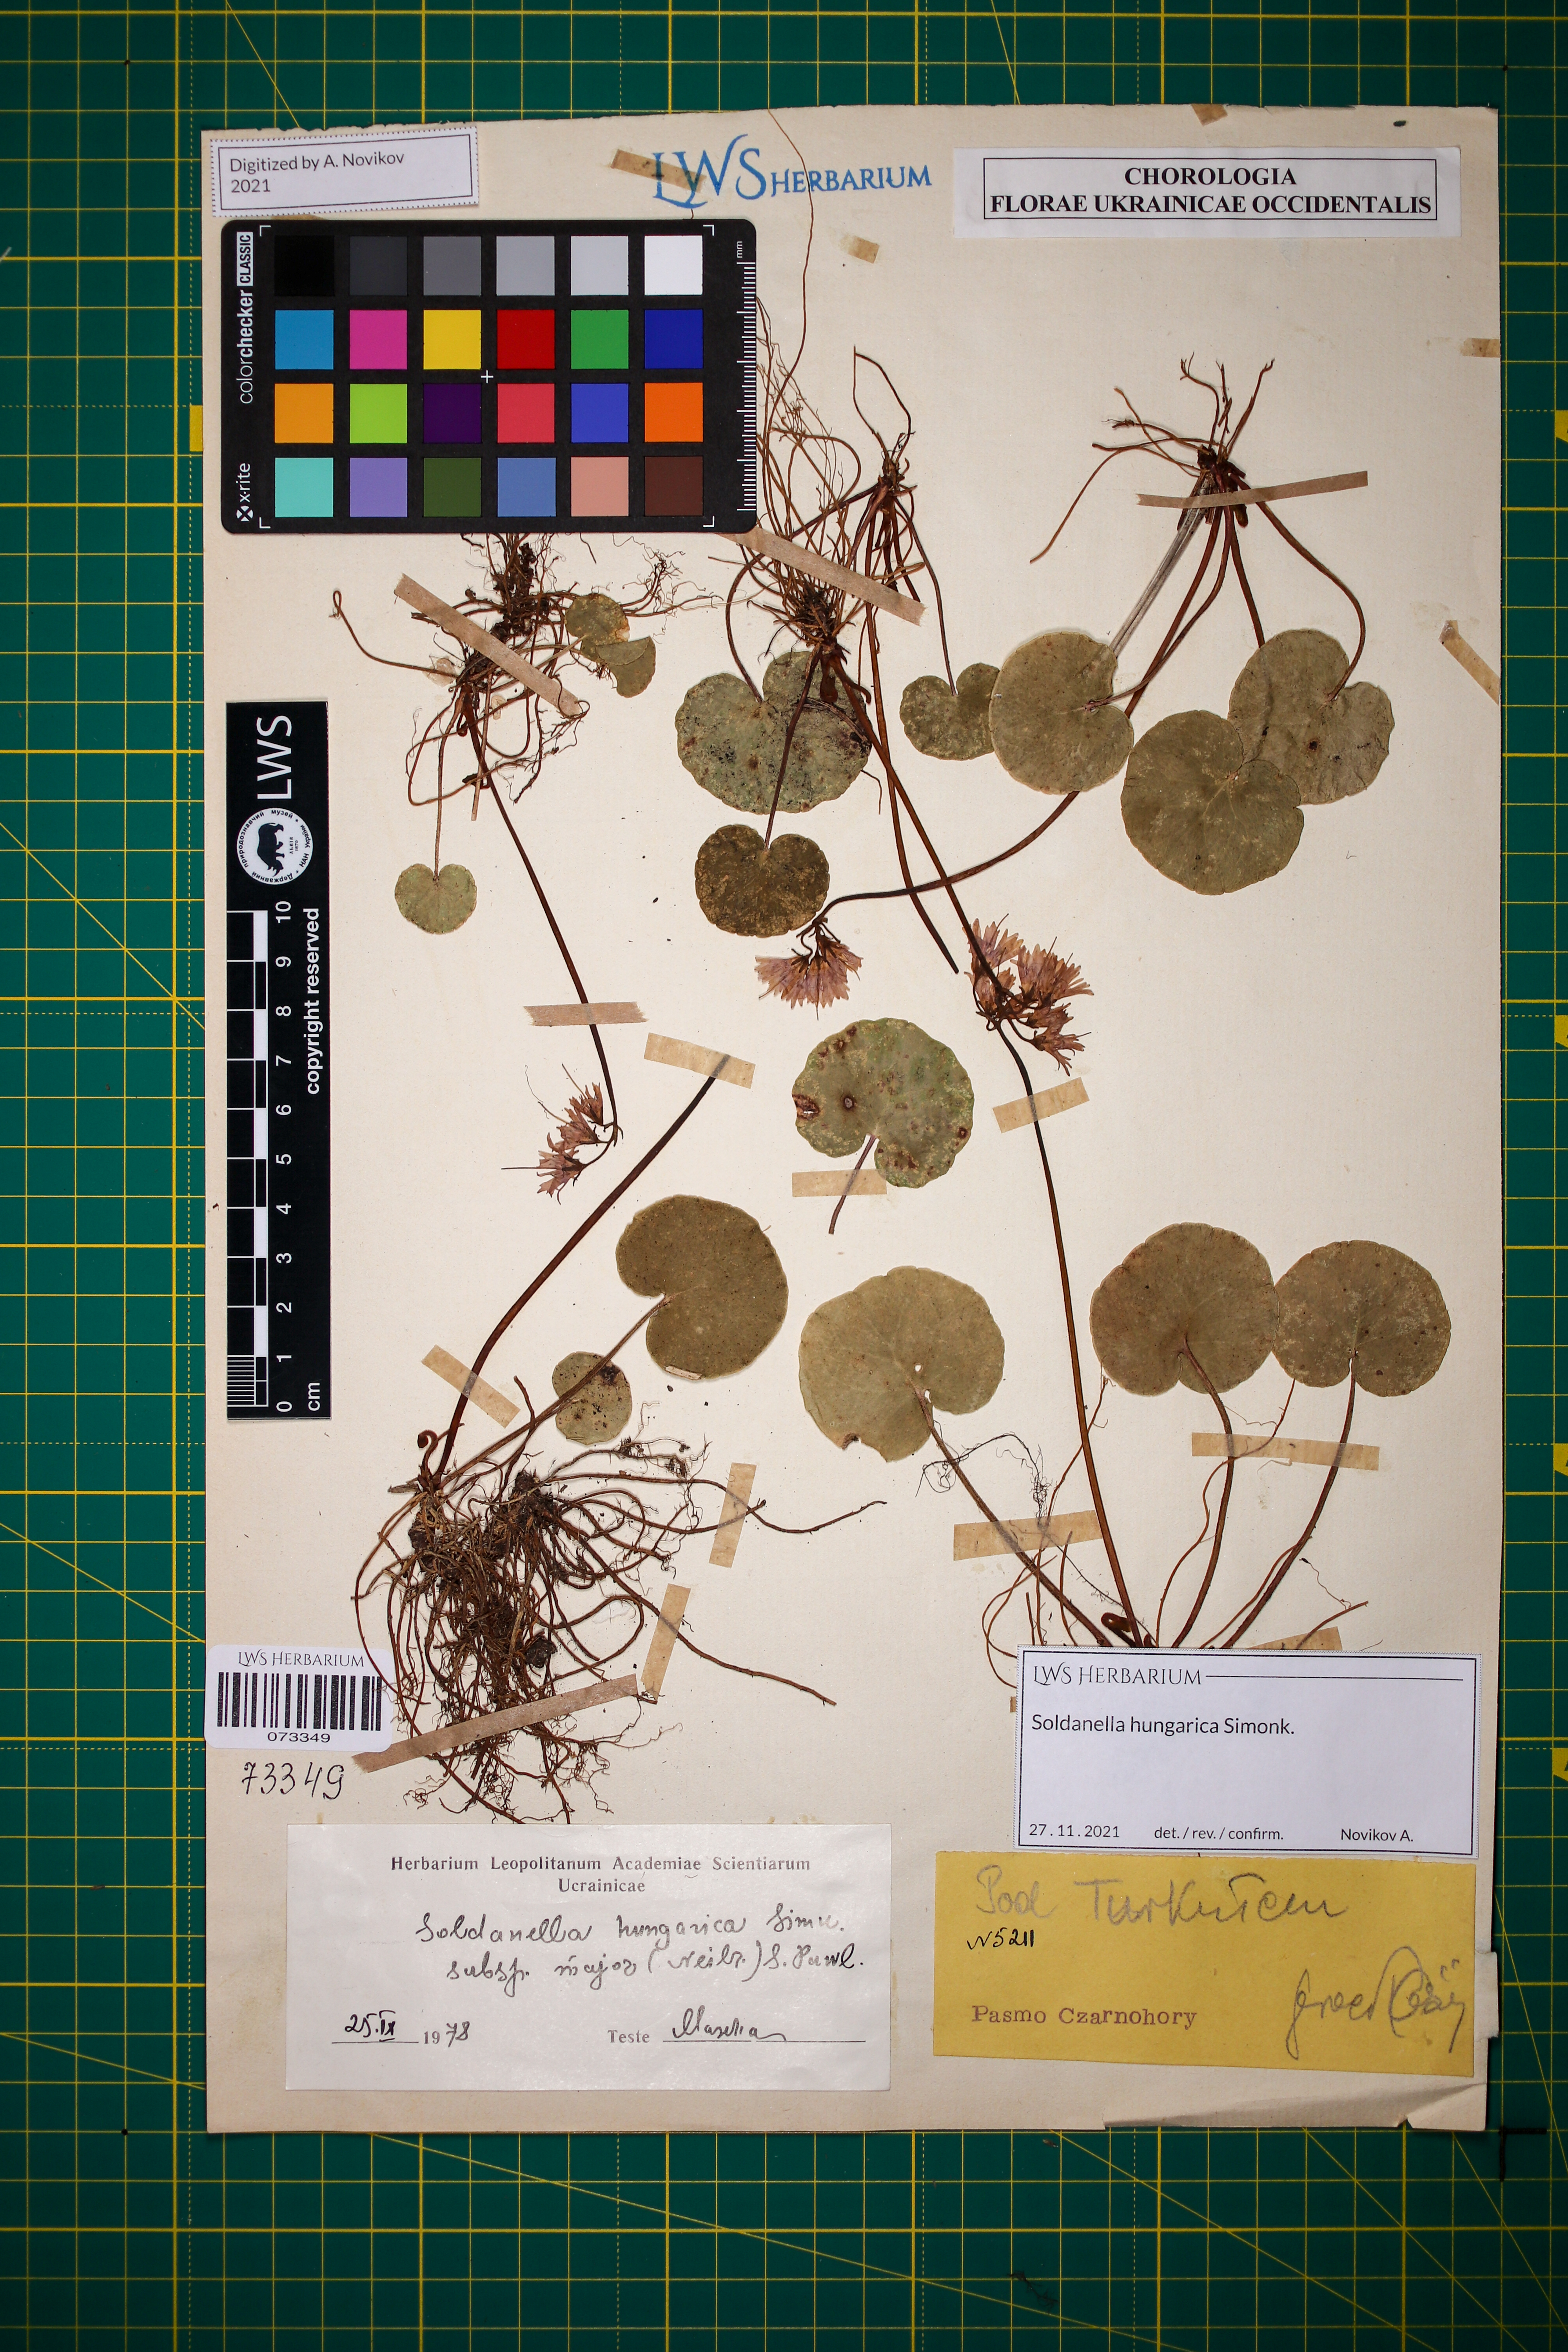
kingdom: Plantae
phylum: Tracheophyta
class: Magnoliopsida
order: Ericales
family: Primulaceae
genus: Soldanella
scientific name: Soldanella hungarica
